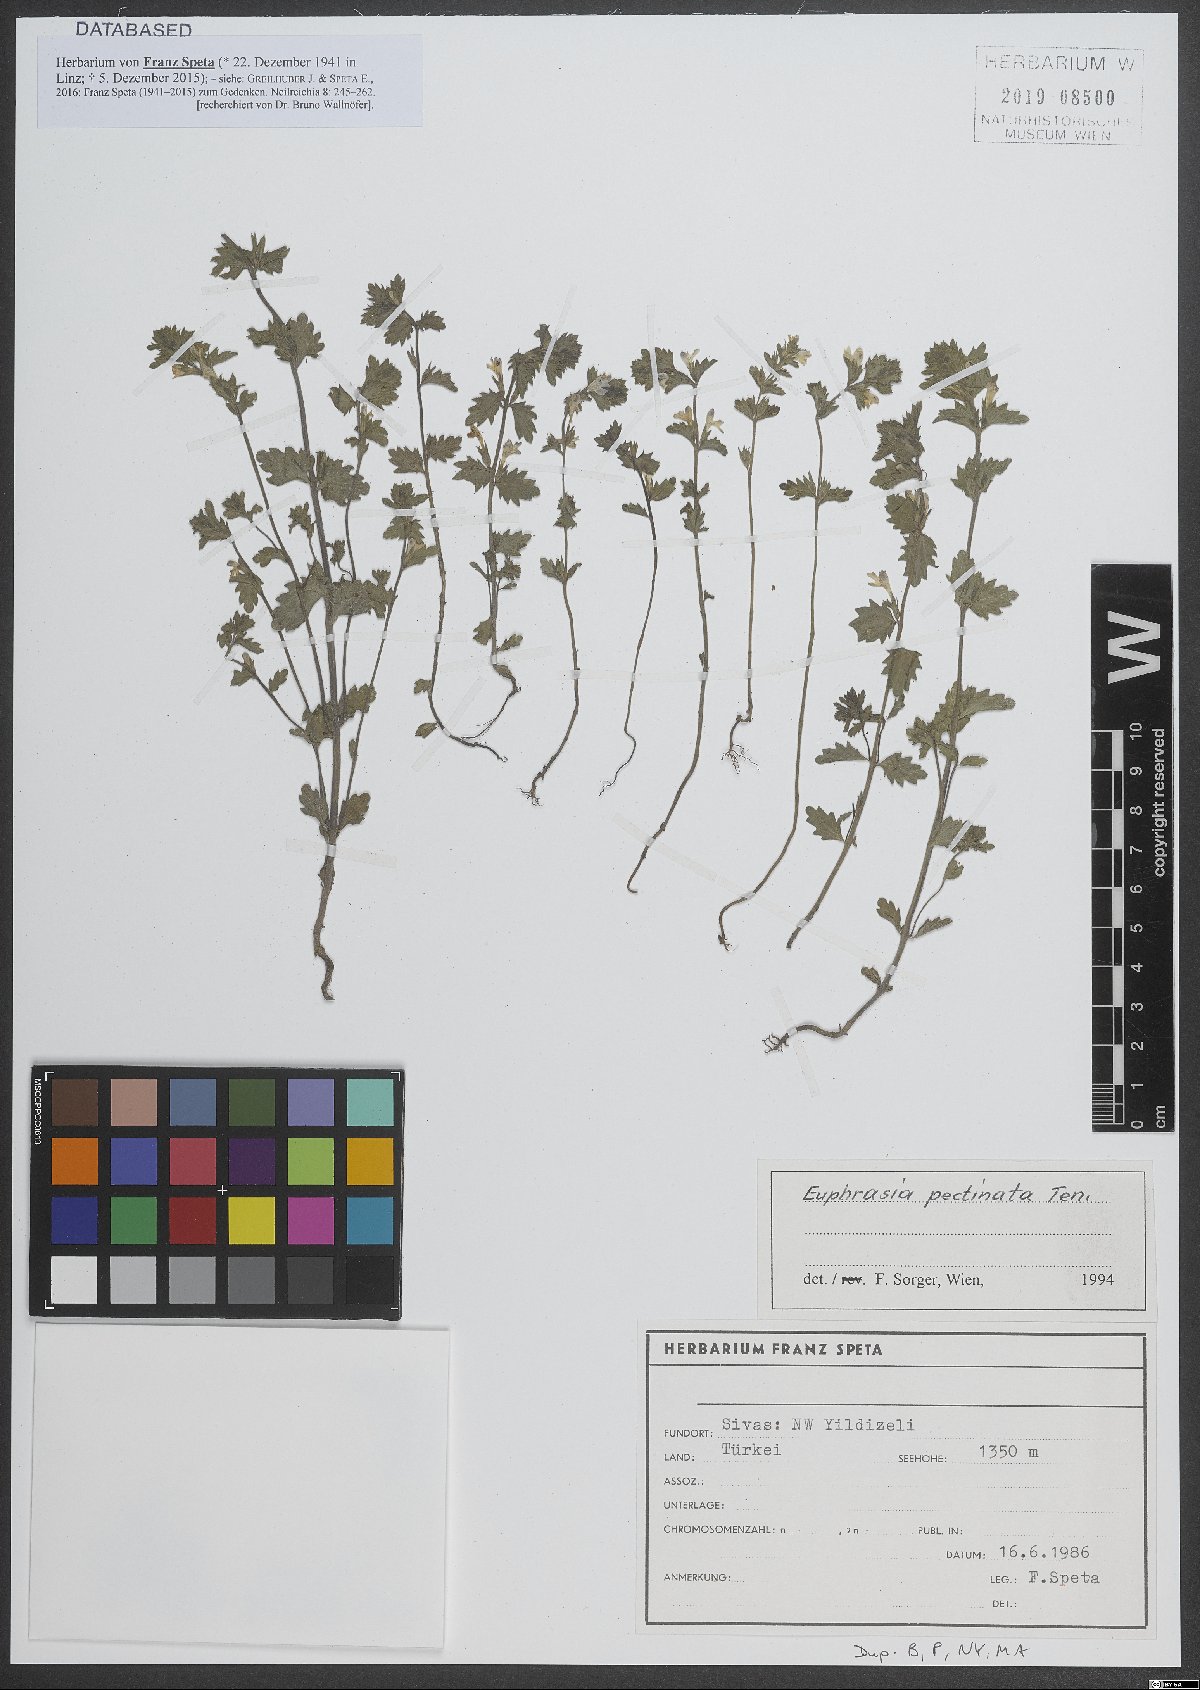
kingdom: Plantae
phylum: Tracheophyta
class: Magnoliopsida
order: Lamiales
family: Orobanchaceae
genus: Euphrasia
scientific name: Euphrasia pectinata
